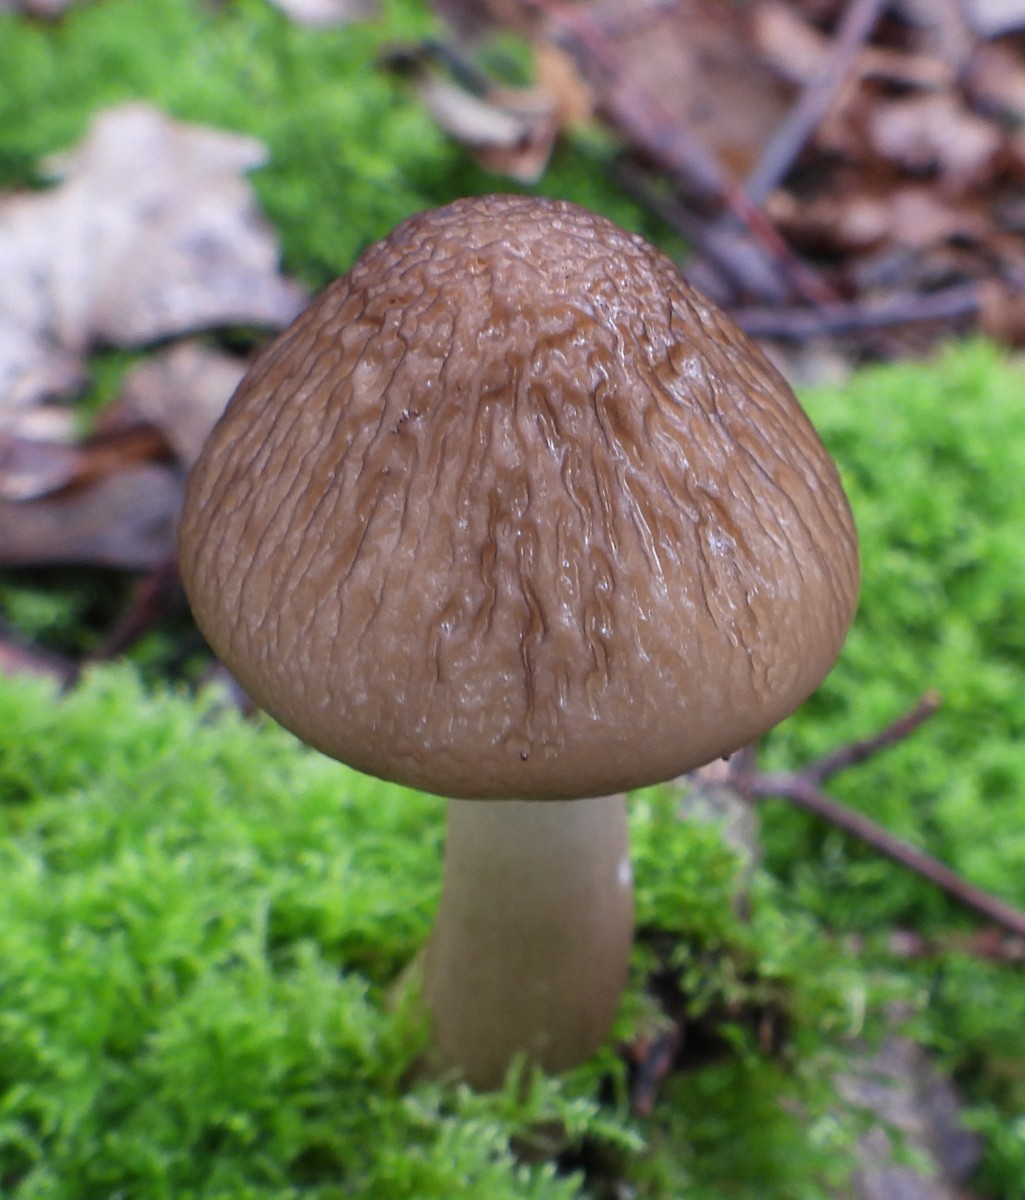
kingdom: Fungi
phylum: Basidiomycota
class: Agaricomycetes
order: Agaricales
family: Physalacriaceae
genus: Hymenopellis
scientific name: Hymenopellis radicata
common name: almindelig pælerodshat
